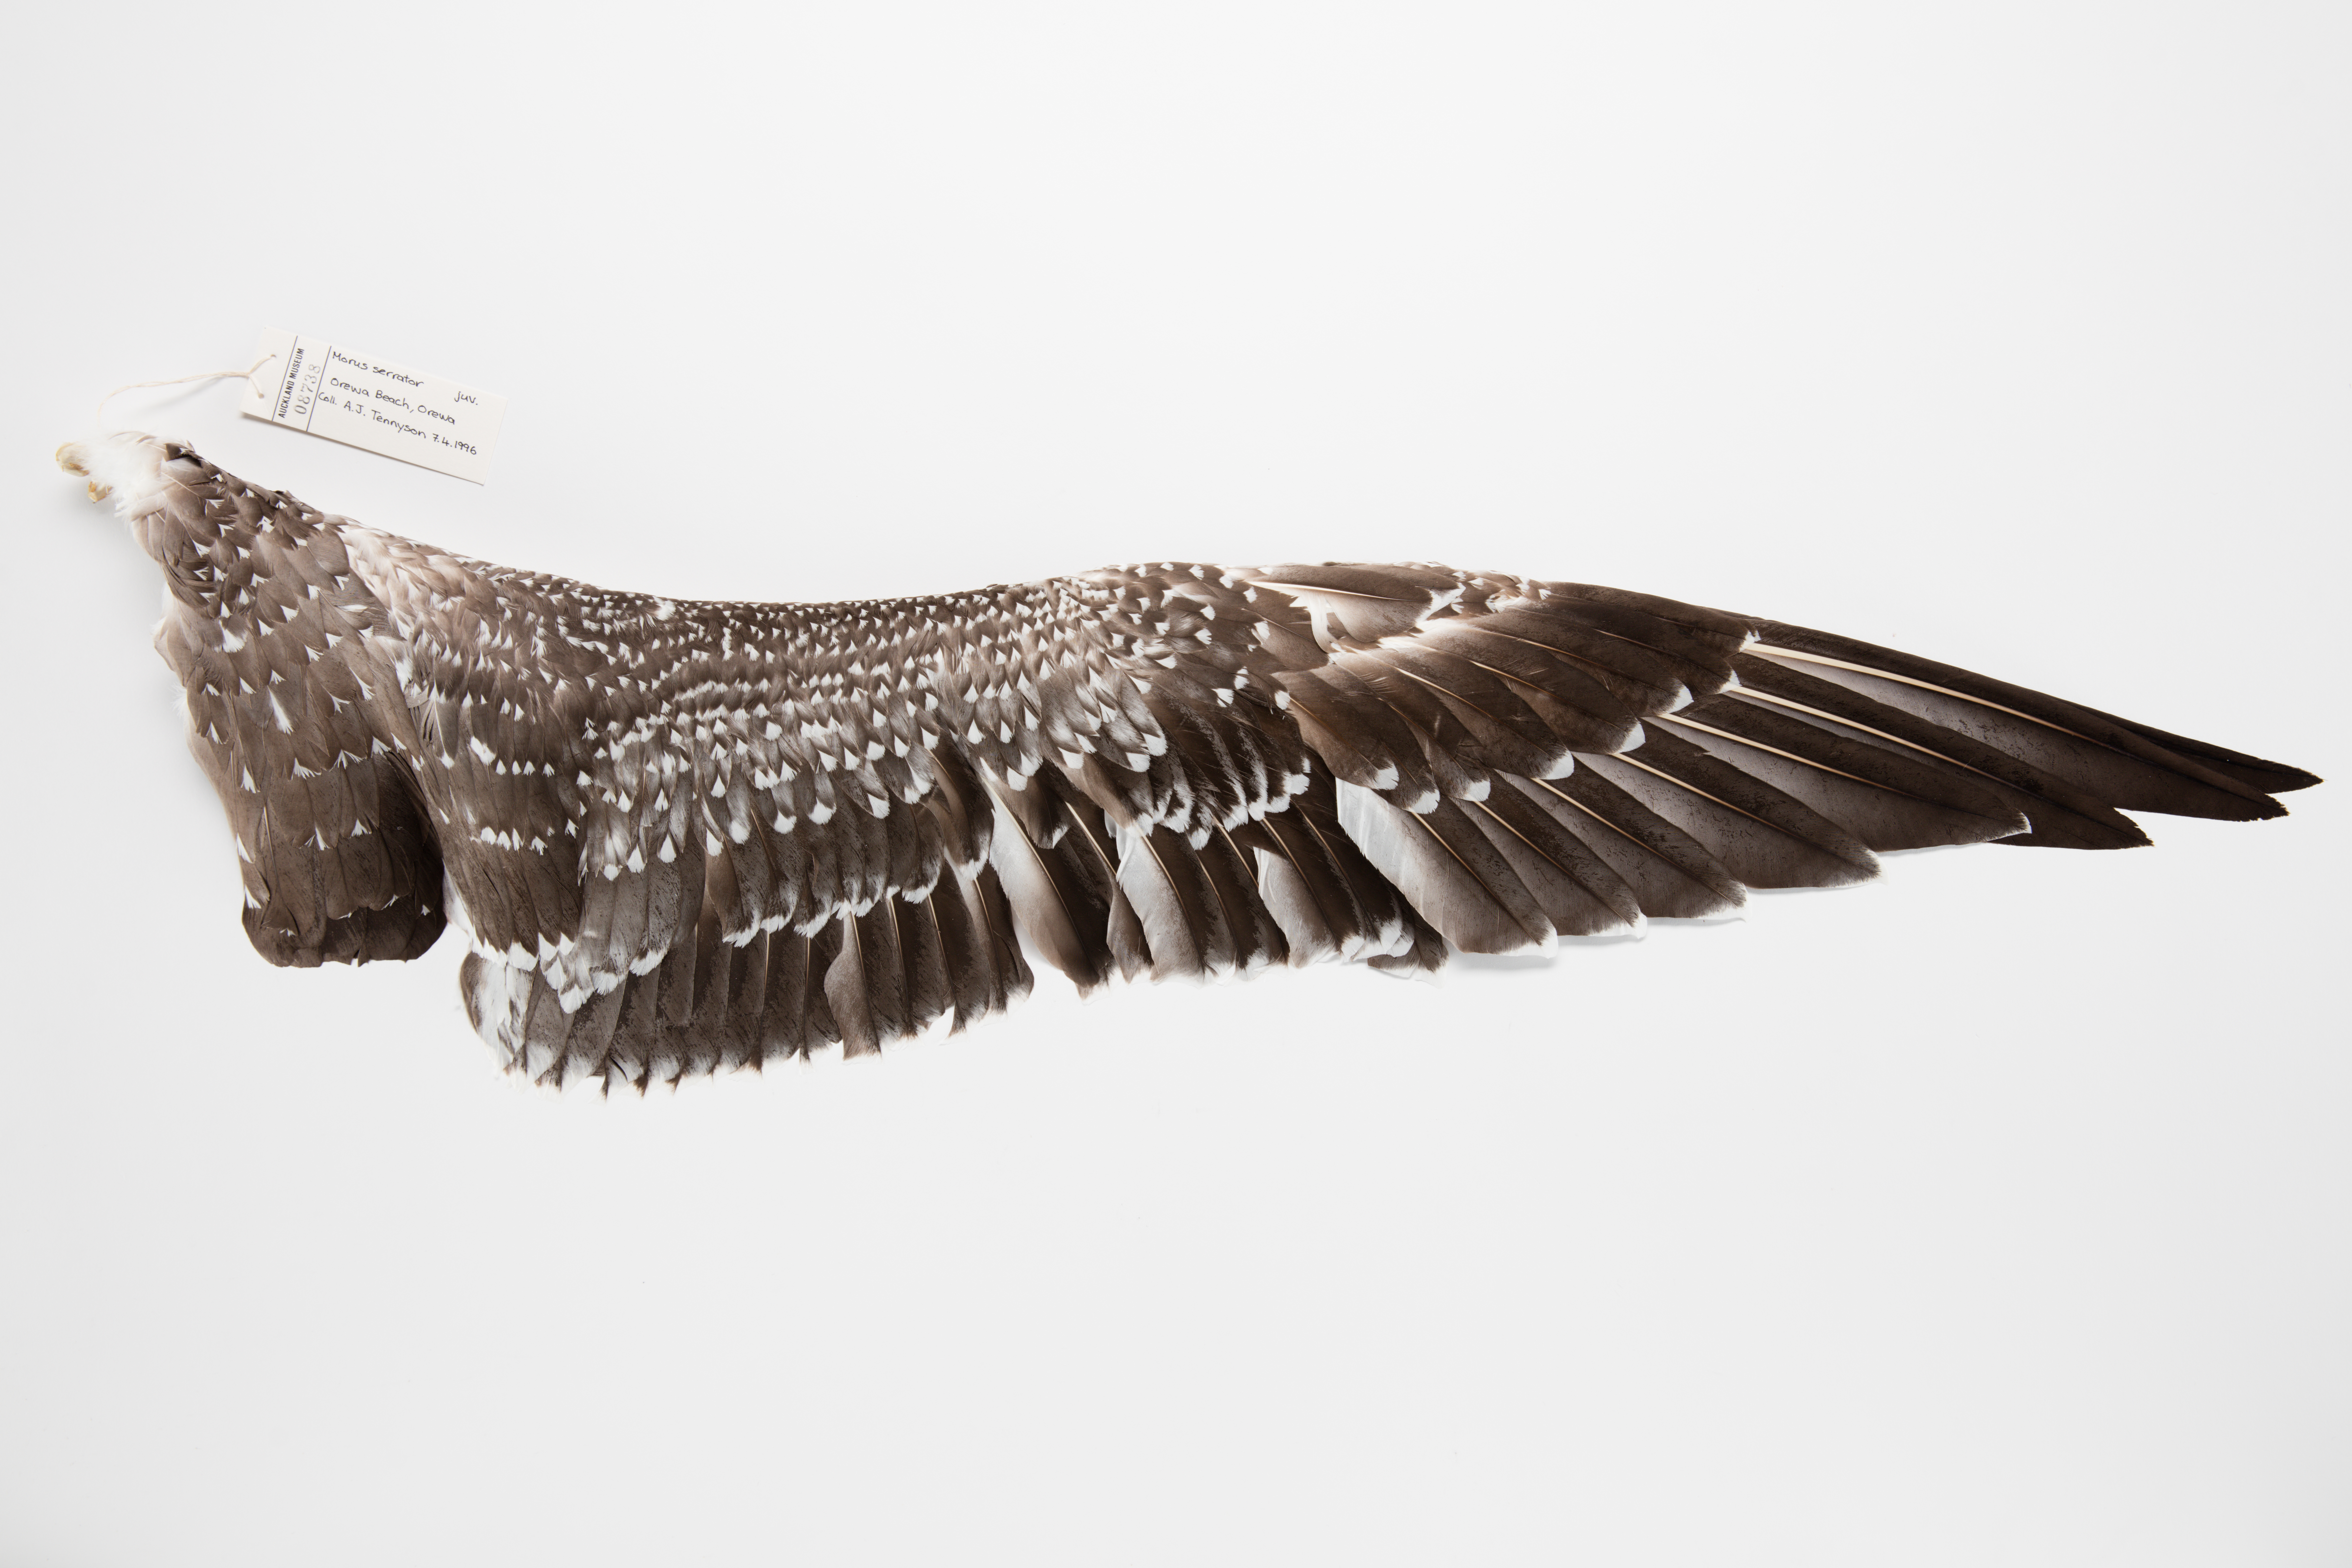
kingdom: Animalia
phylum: Chordata
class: Aves
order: Suliformes
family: Sulidae
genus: Morus
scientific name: Morus serrator
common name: Australasian gannet
